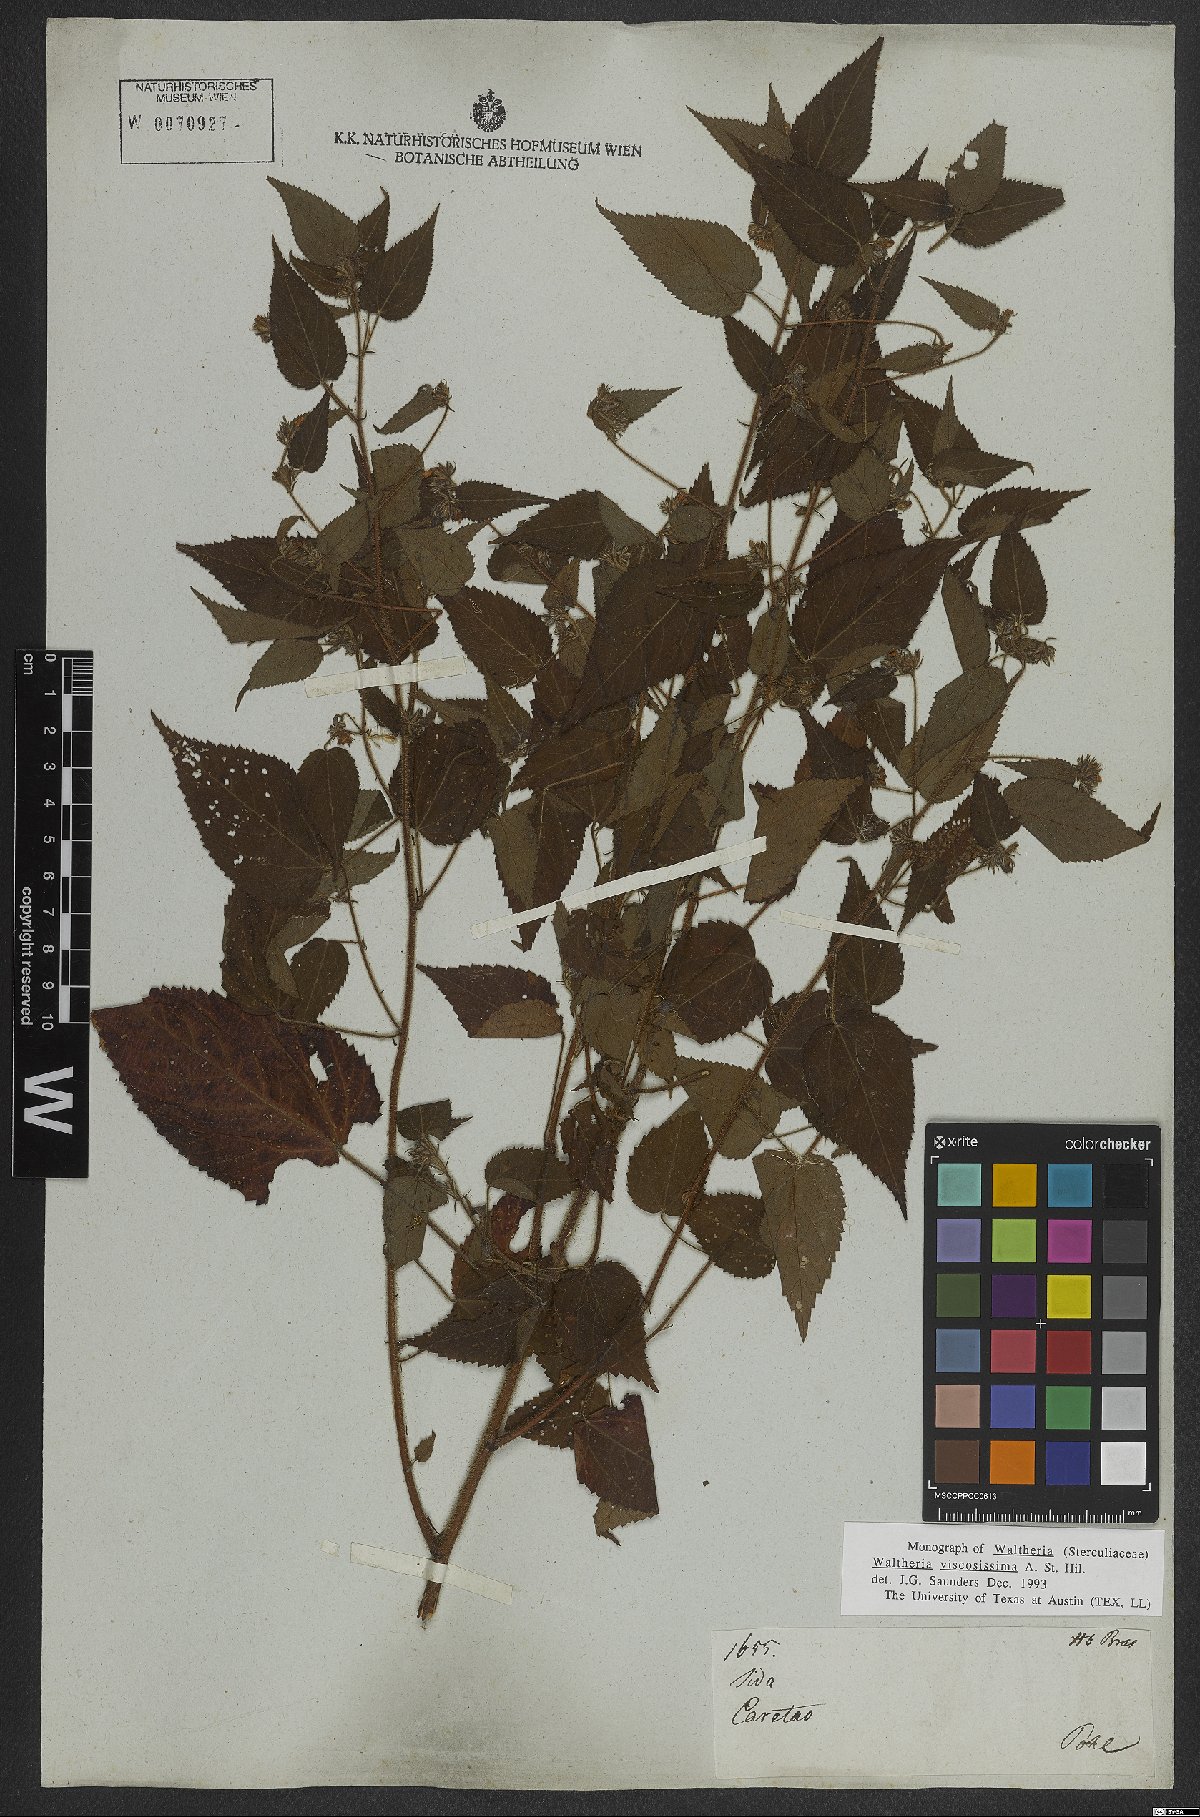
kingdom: Plantae
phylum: Tracheophyta
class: Magnoliopsida
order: Malvales
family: Malvaceae
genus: Waltheria
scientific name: Waltheria viscosissima
